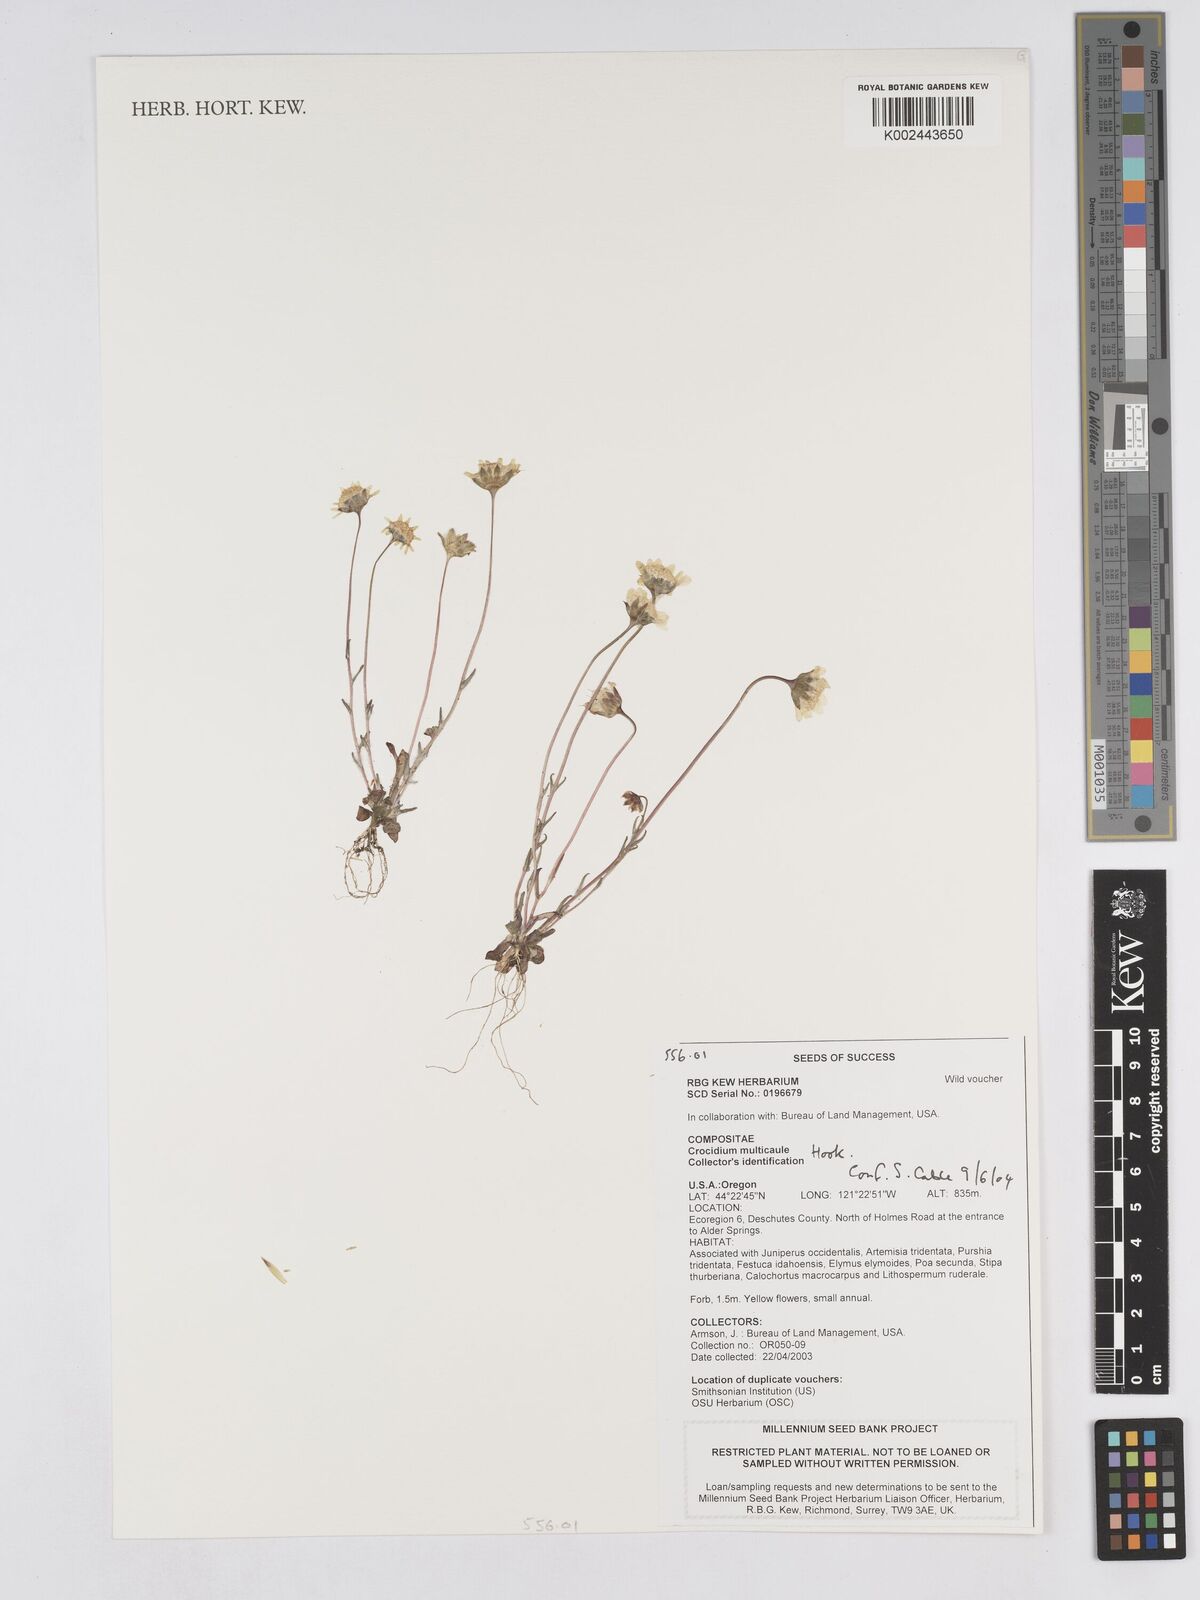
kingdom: Plantae
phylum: Tracheophyta
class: Magnoliopsida
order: Asterales
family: Asteraceae
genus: Crocidium
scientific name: Crocidium multicaule
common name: Common spring gold
